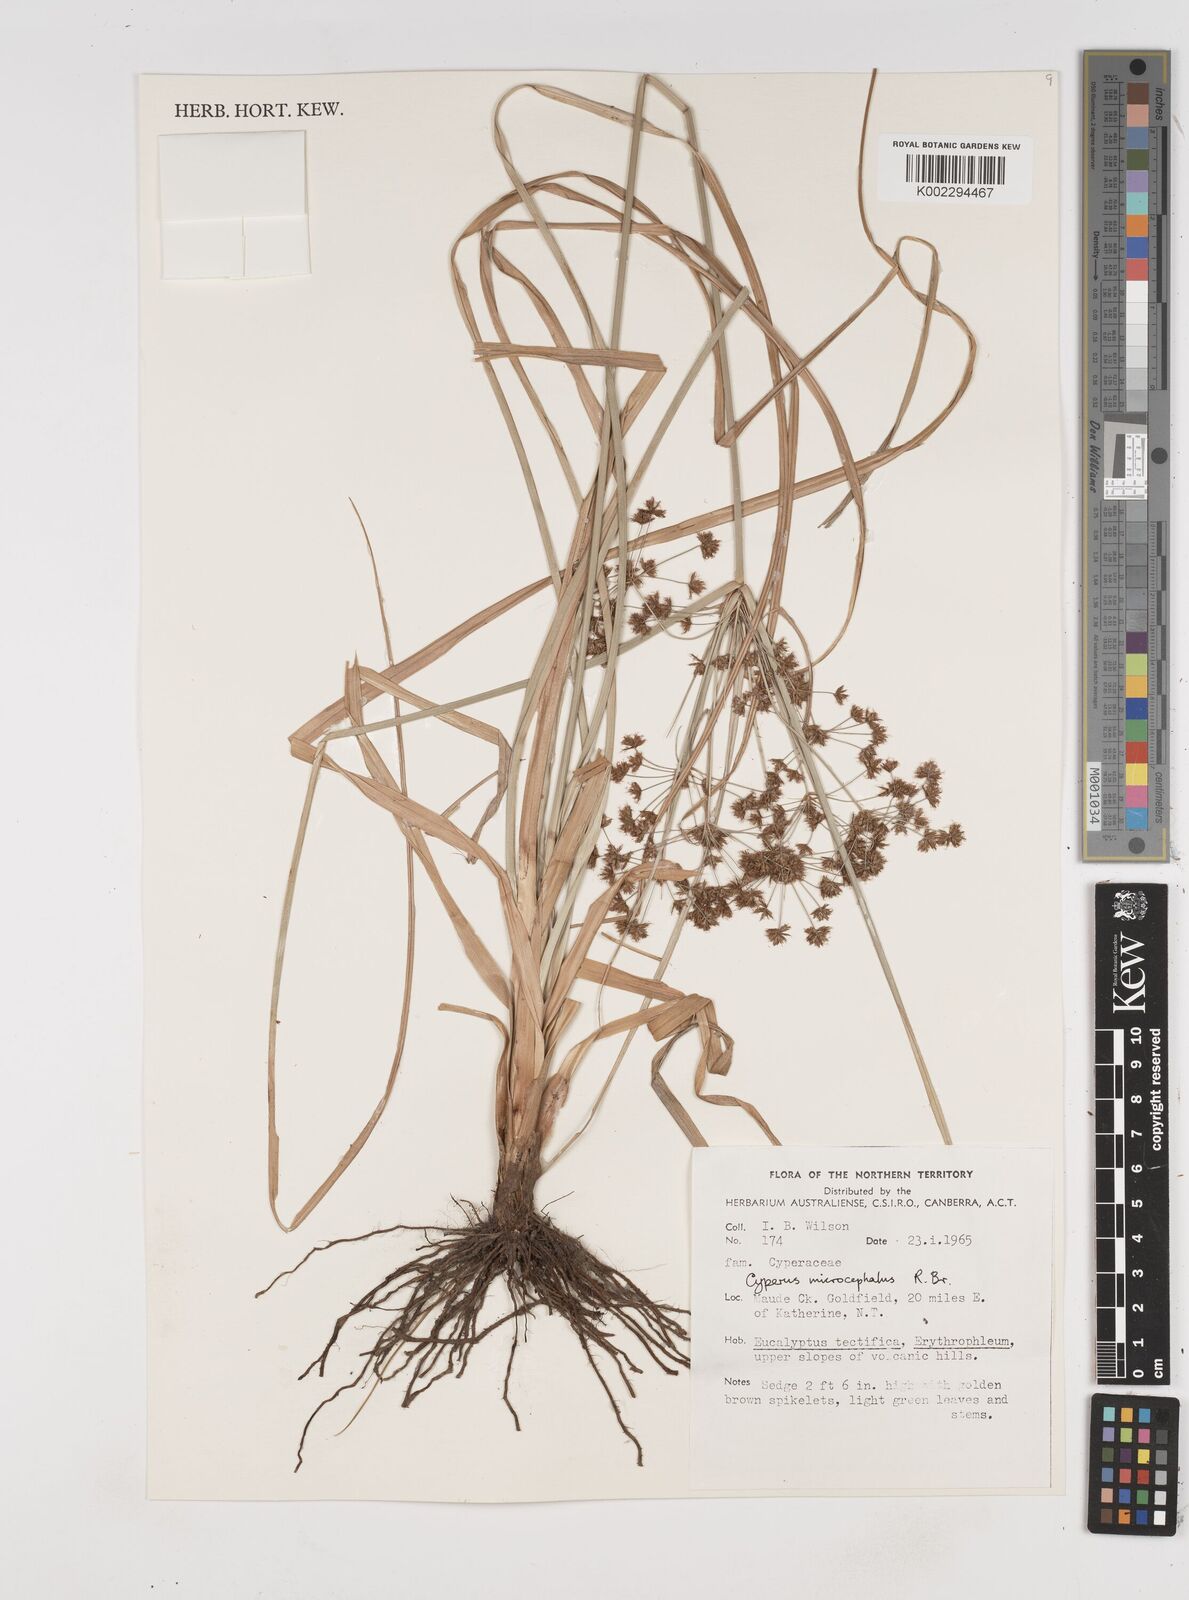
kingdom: Plantae
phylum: Tracheophyta
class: Liliopsida
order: Poales
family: Cyperaceae
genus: Cyperus
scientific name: Cyperus microcephalus
